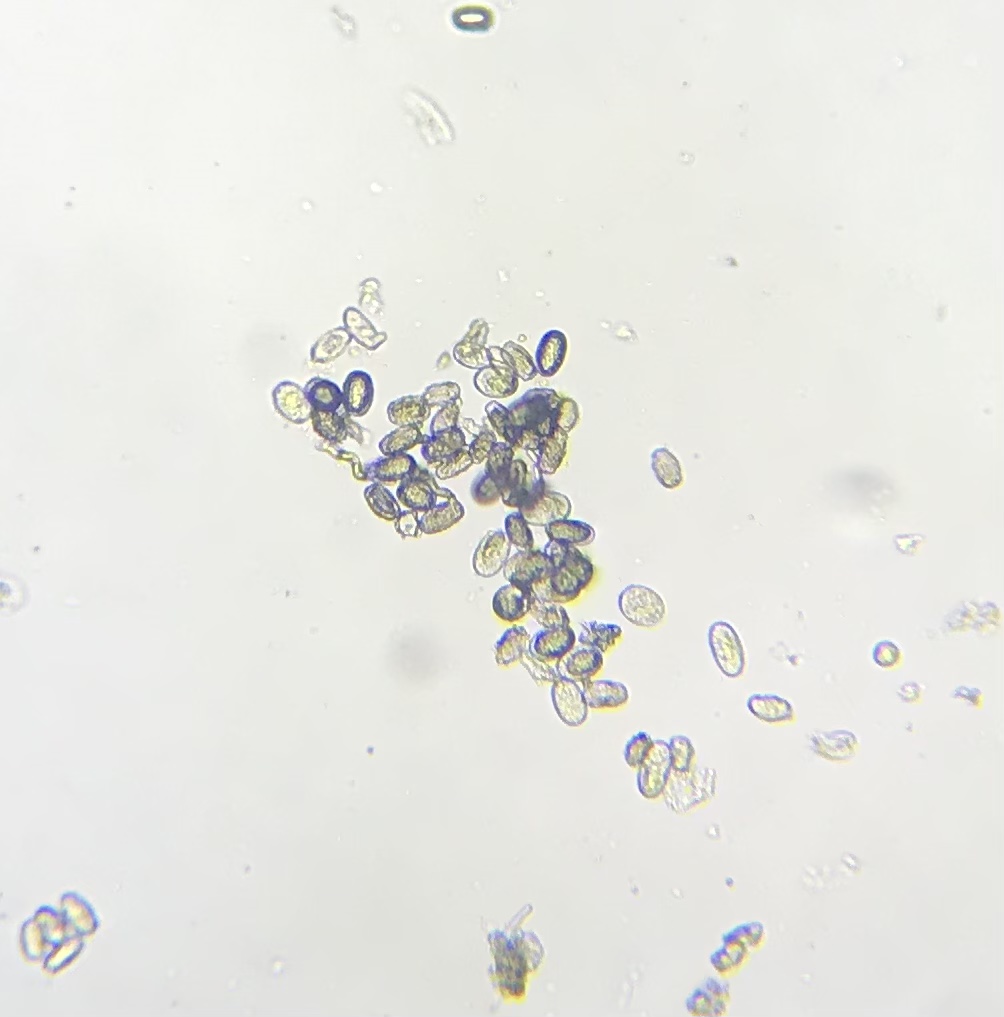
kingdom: Fungi
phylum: Ascomycota
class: Leotiomycetes
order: Helotiales
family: Erysiphaceae
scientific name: Erysiphaceae
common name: meldugfamilien
